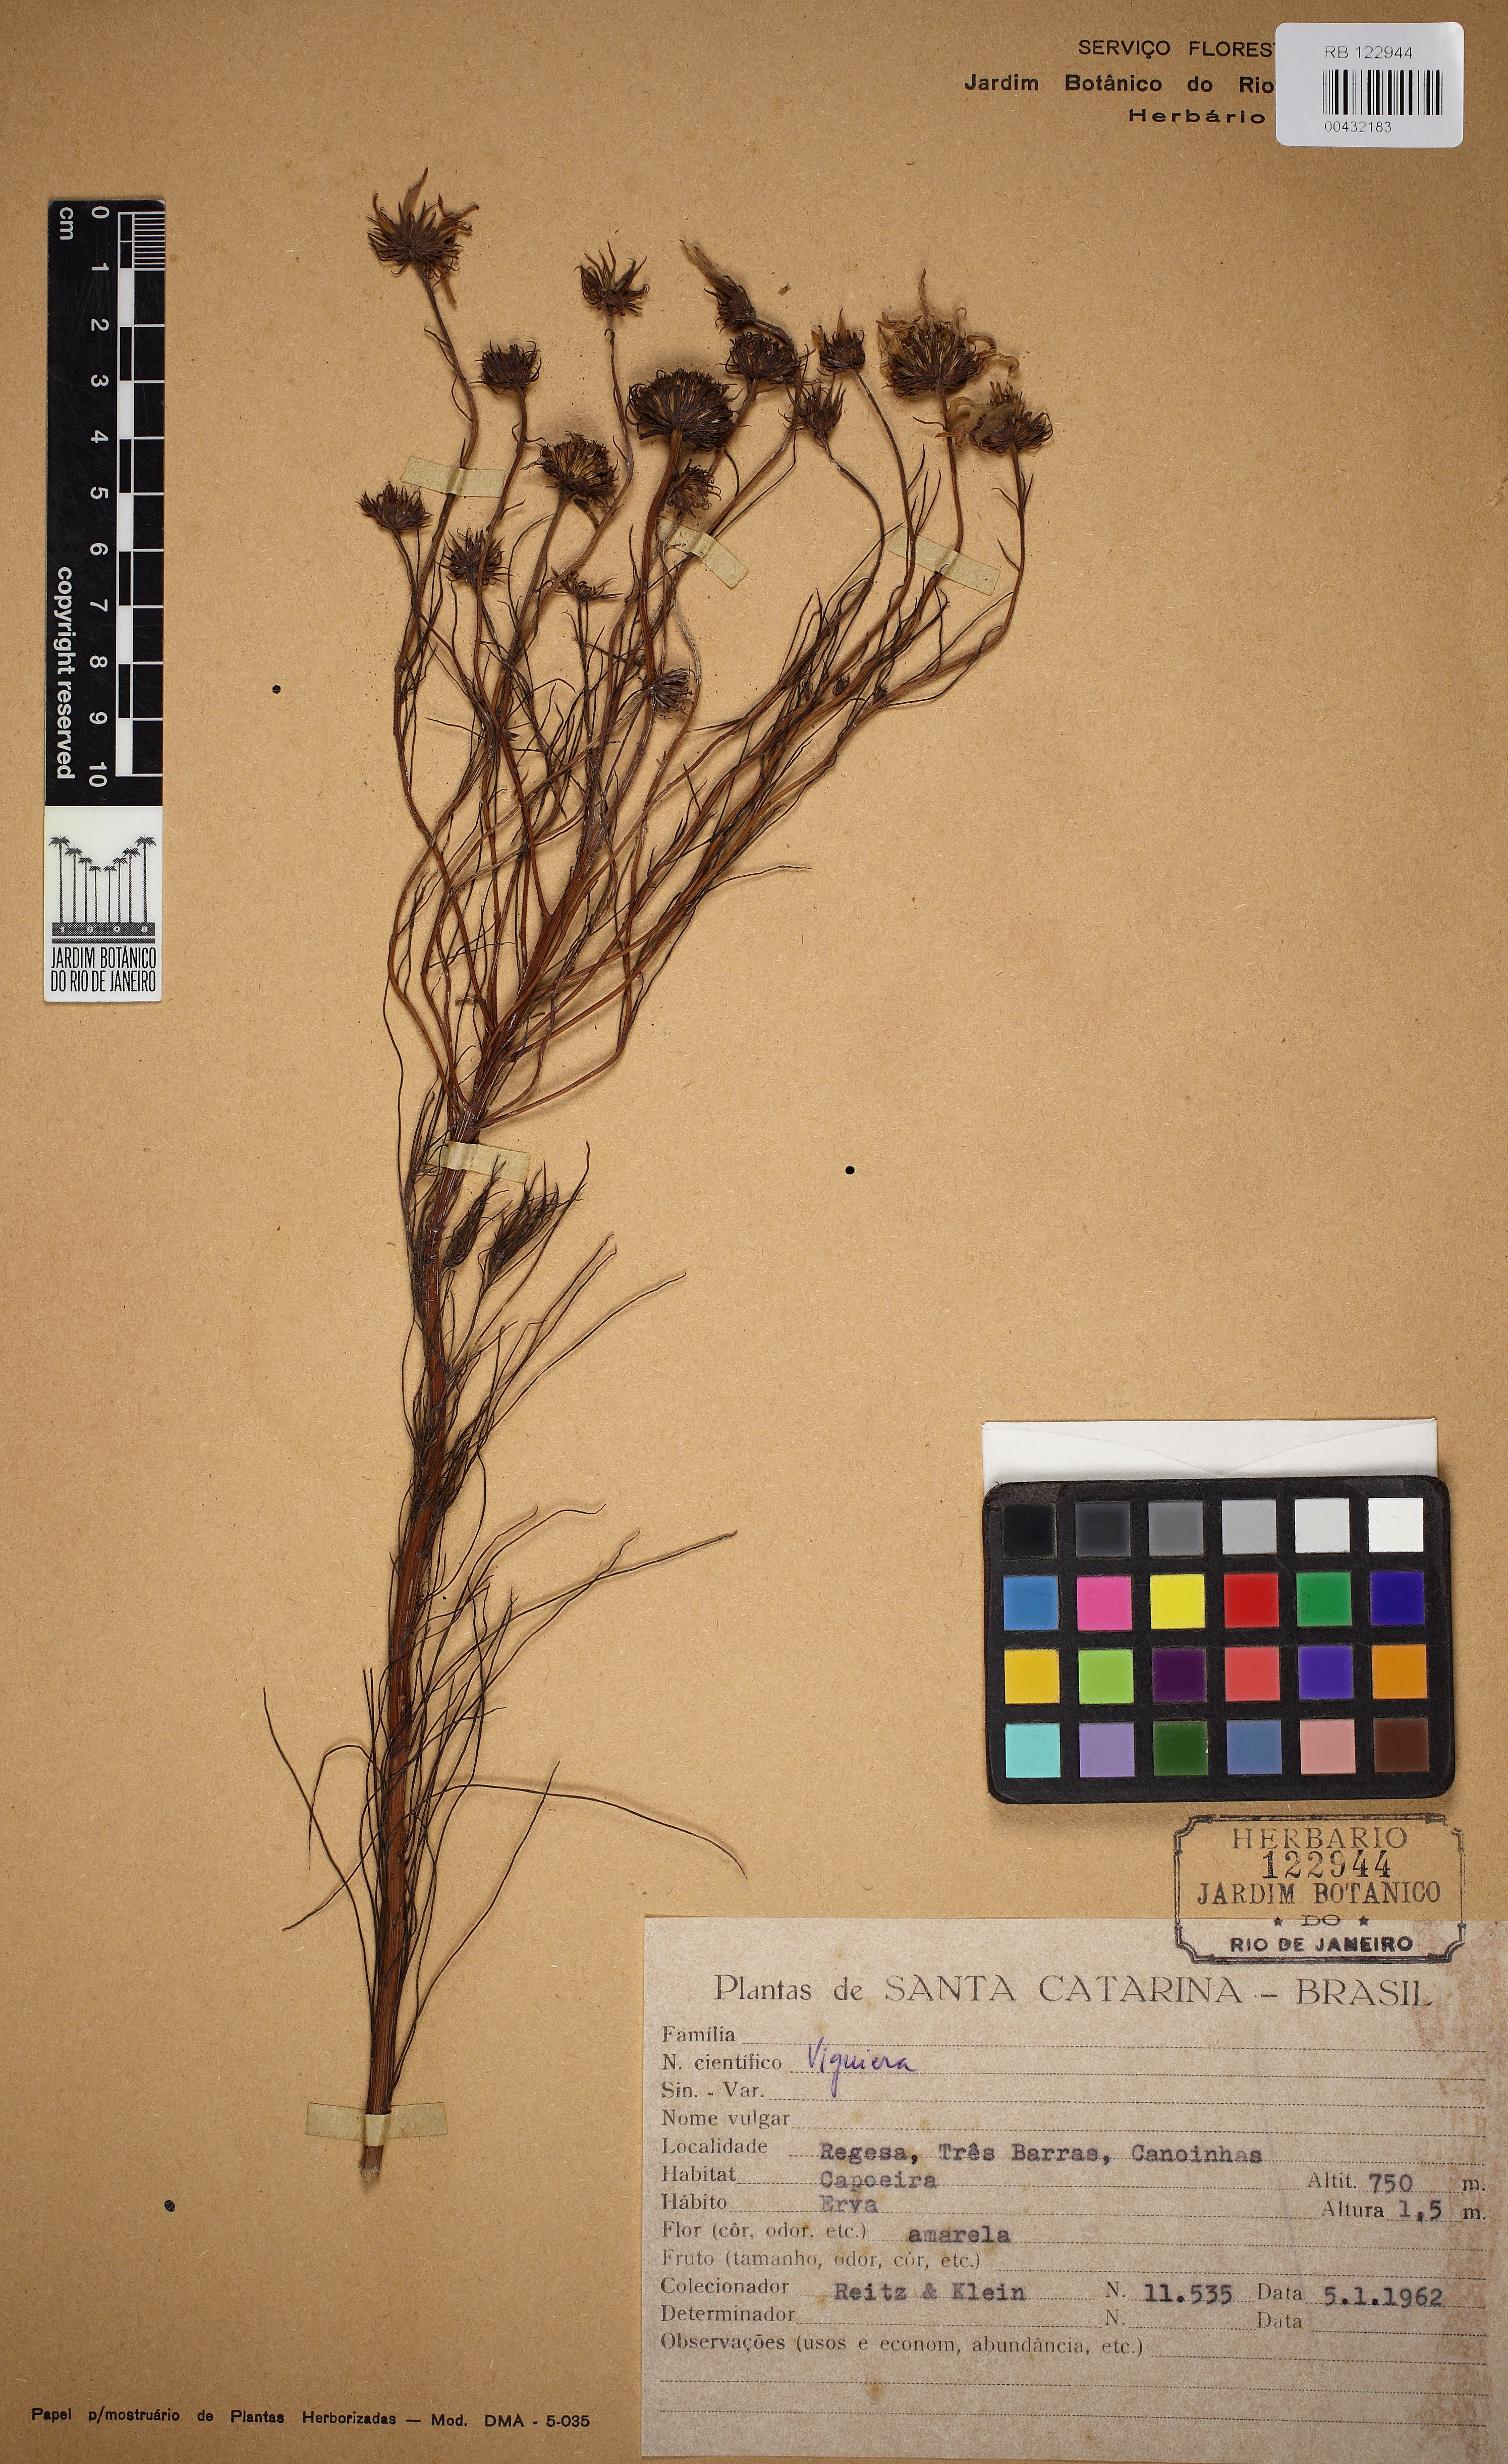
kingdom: Plantae
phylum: Tracheophyta
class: Magnoliopsida
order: Asterales
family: Asteraceae
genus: Viguiera
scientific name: Viguiera
